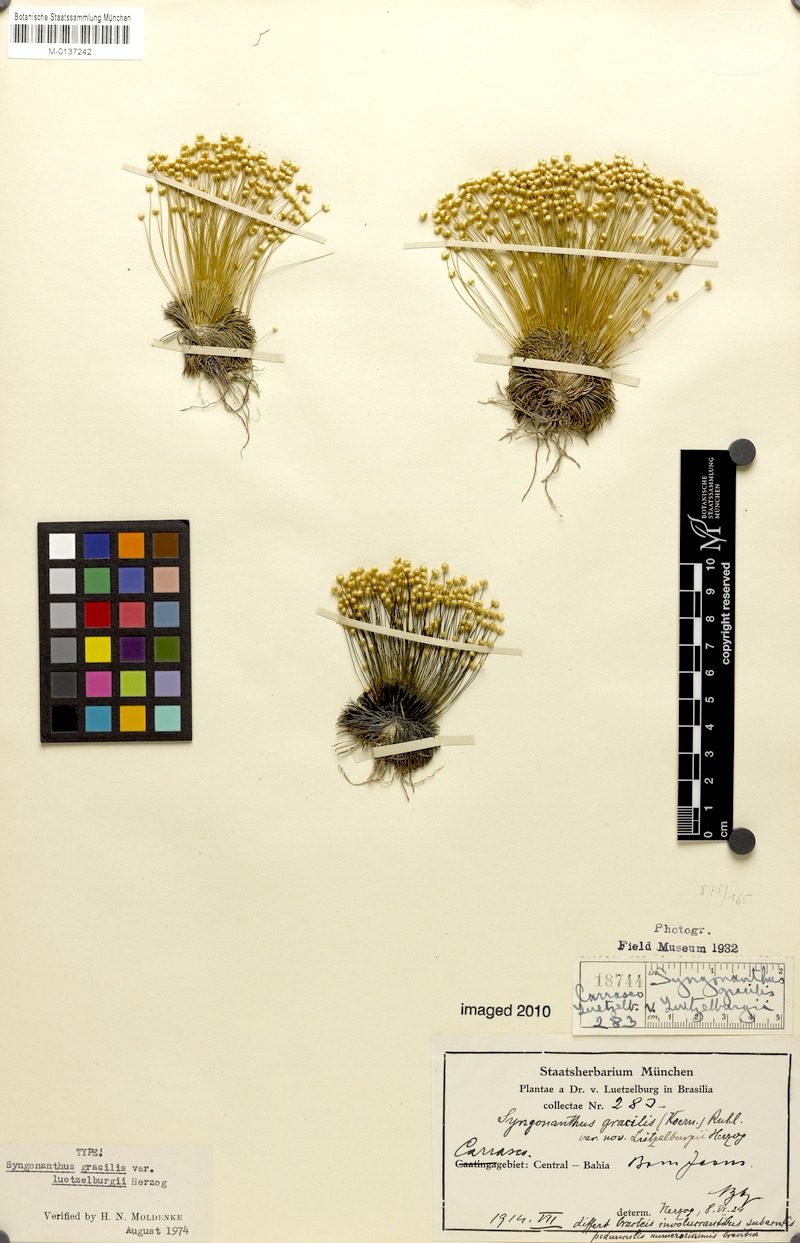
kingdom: Plantae
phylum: Tracheophyta
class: Liliopsida
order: Poales
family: Eriocaulaceae
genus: Syngonanthus
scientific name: Syngonanthus gracilis
